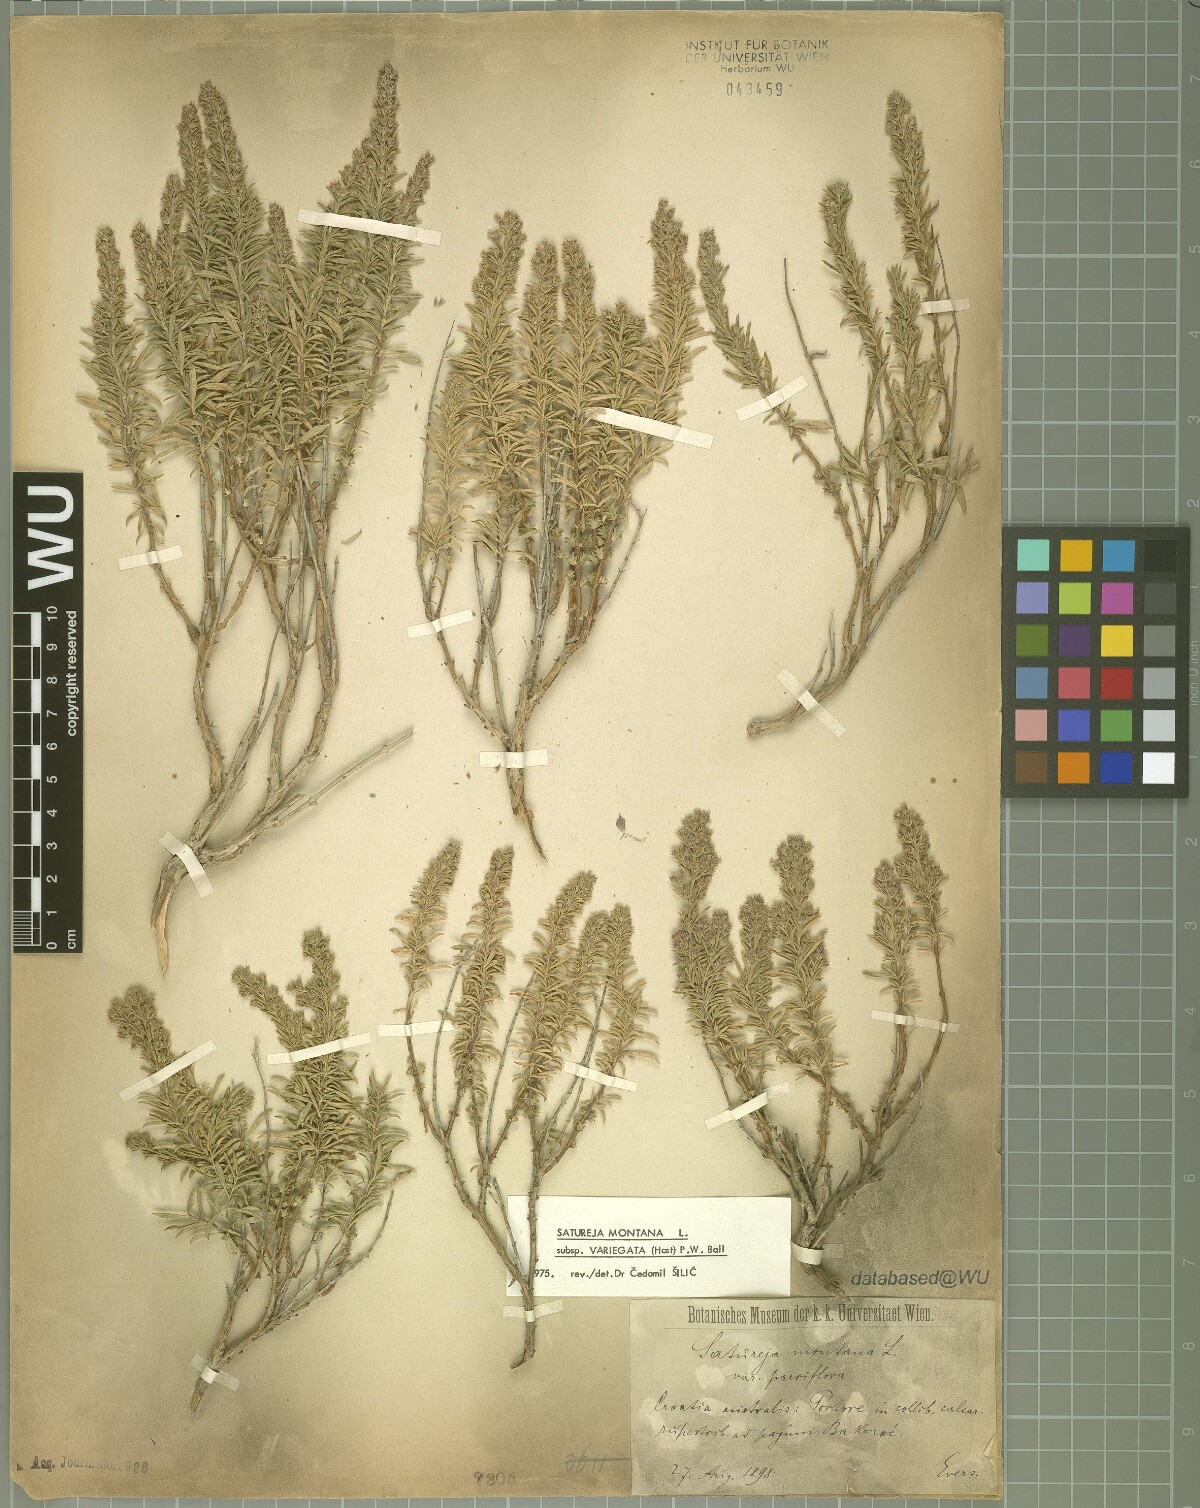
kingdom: Plantae
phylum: Tracheophyta
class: Magnoliopsida
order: Lamiales
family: Lamiaceae
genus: Satureja
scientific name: Satureja montana
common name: Winter savory
